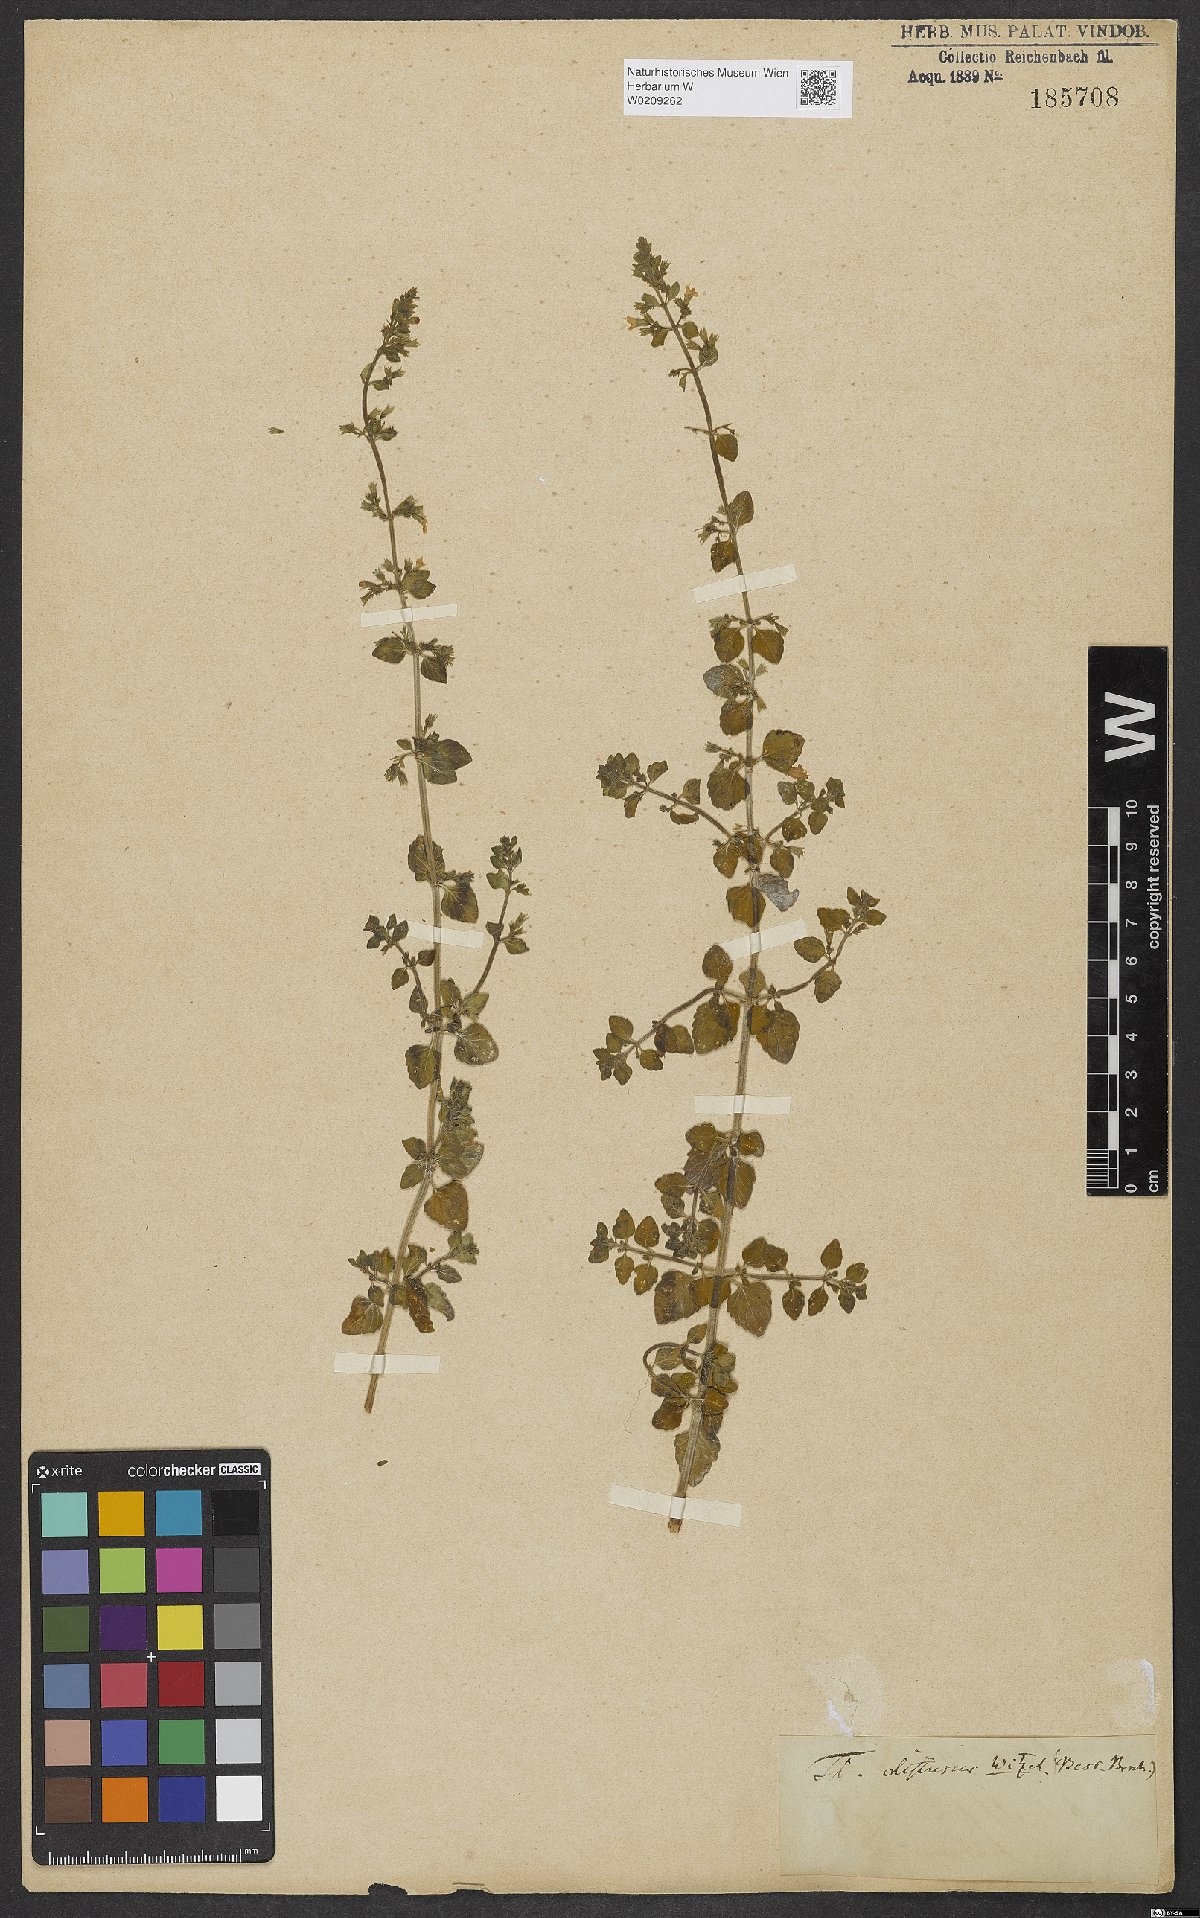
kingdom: Plantae
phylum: Tracheophyta
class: Magnoliopsida
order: Lamiales
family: Lamiaceae
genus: Clinopodium
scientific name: Clinopodium acinos
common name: Basil thyme
